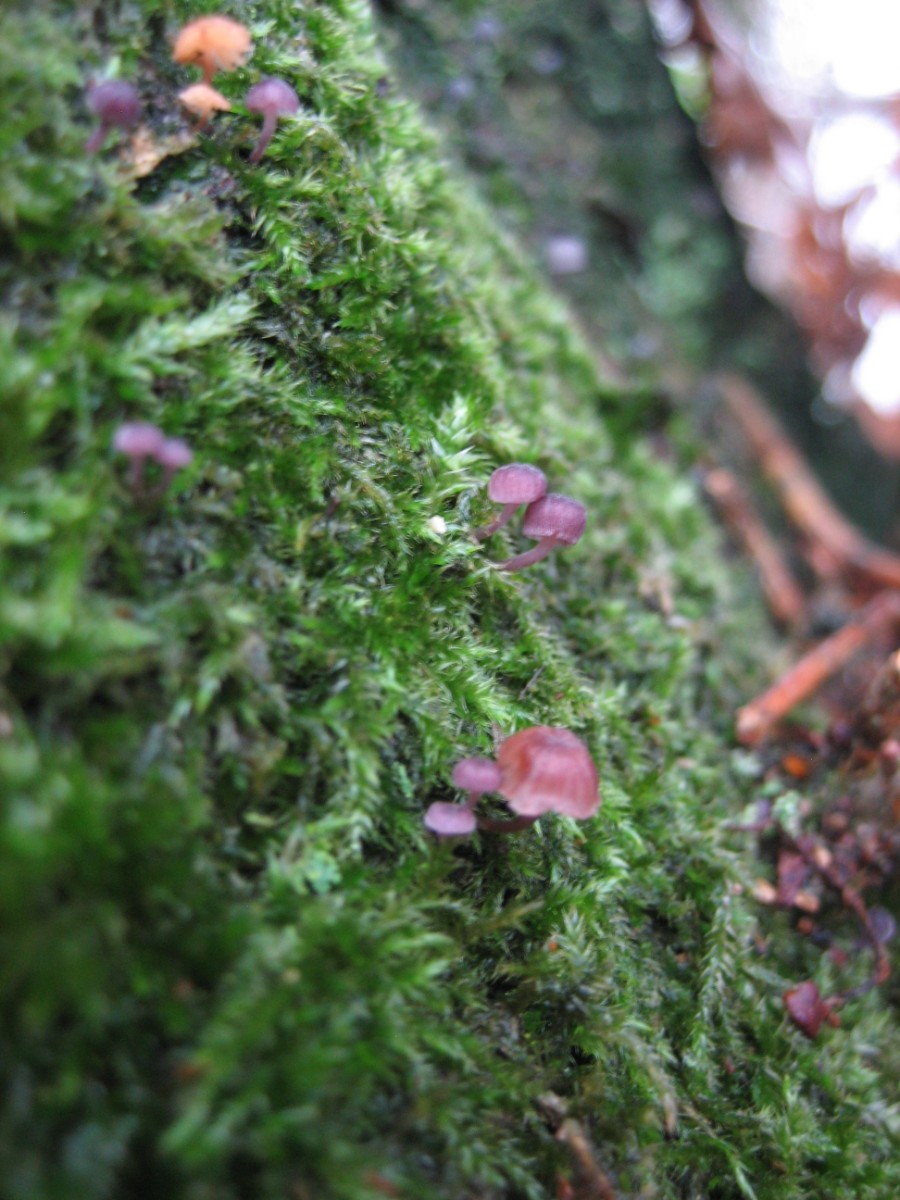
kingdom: Fungi
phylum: Basidiomycota
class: Agaricomycetes
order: Agaricales
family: Mycenaceae
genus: Mycena
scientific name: Mycena meliigena
